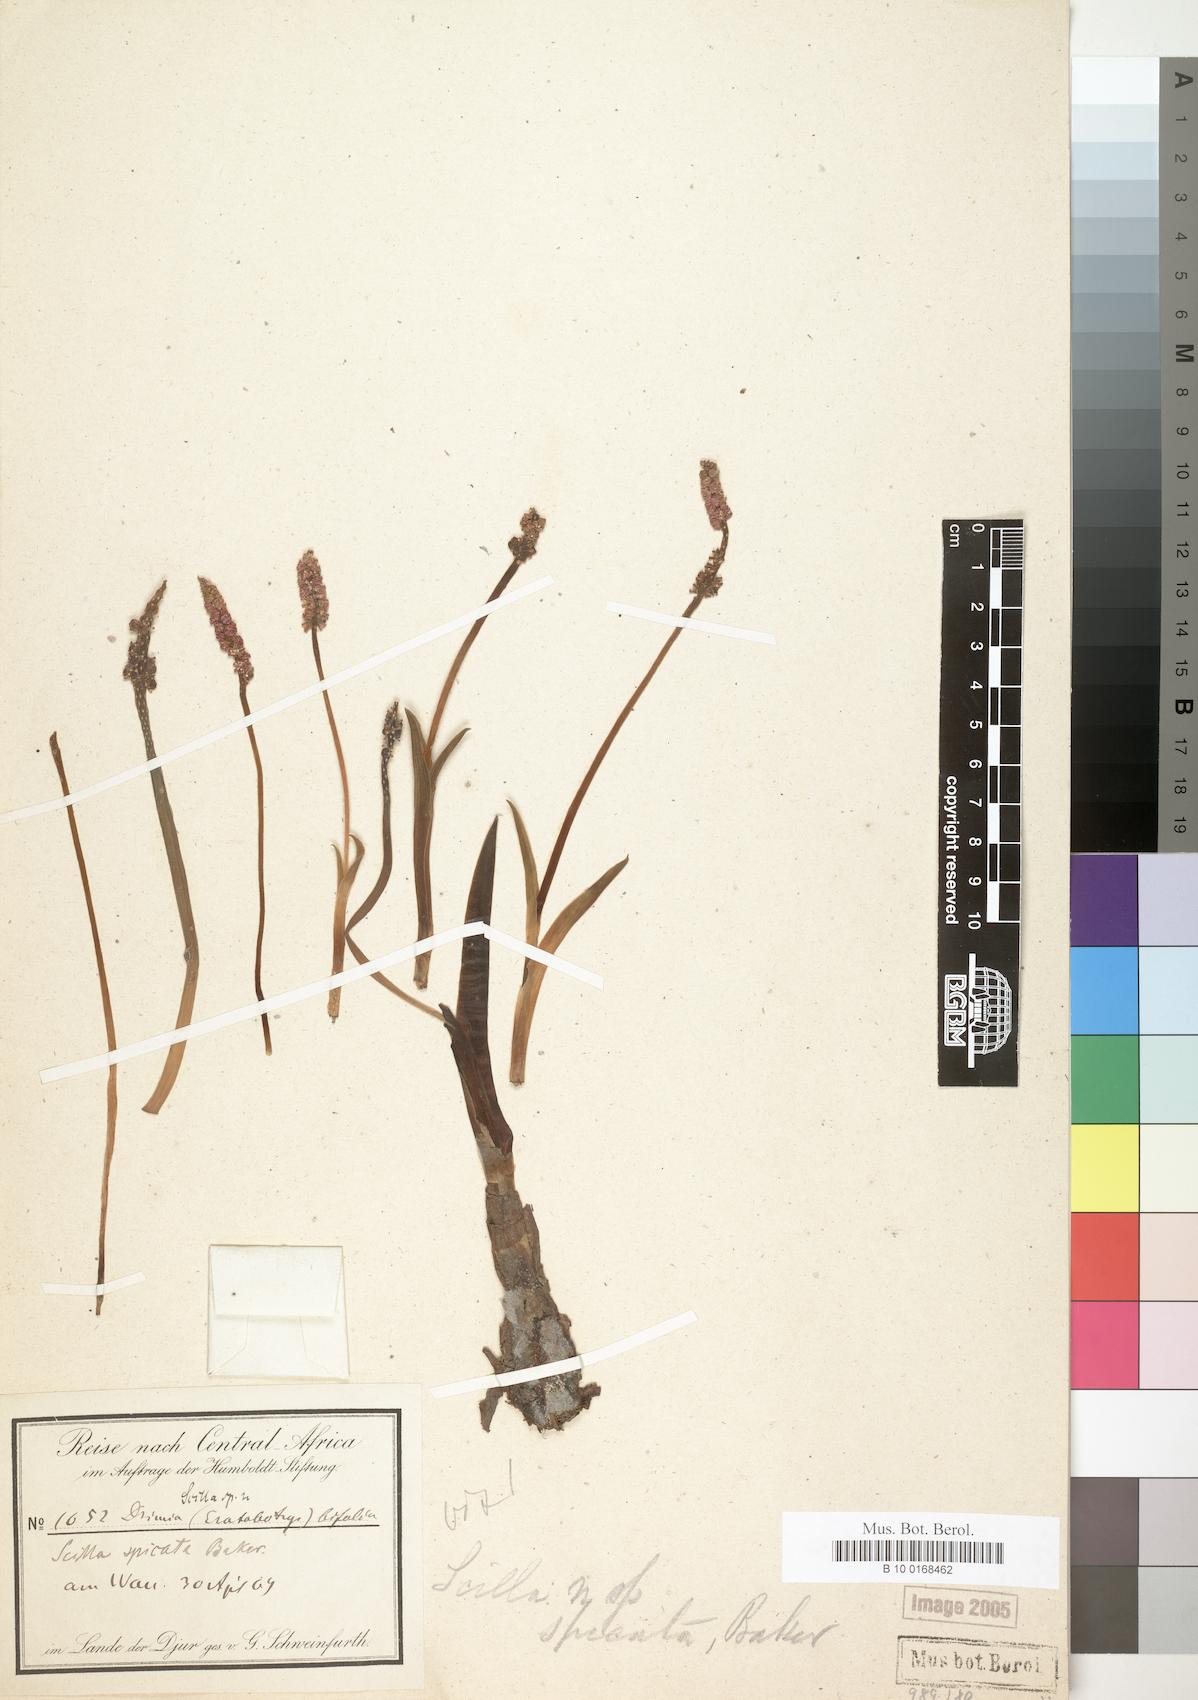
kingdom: Plantae
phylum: Tracheophyta
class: Liliopsida
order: Asparagales
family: Asparagaceae
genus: Drimiopsis
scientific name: Drimiopsis spicata
